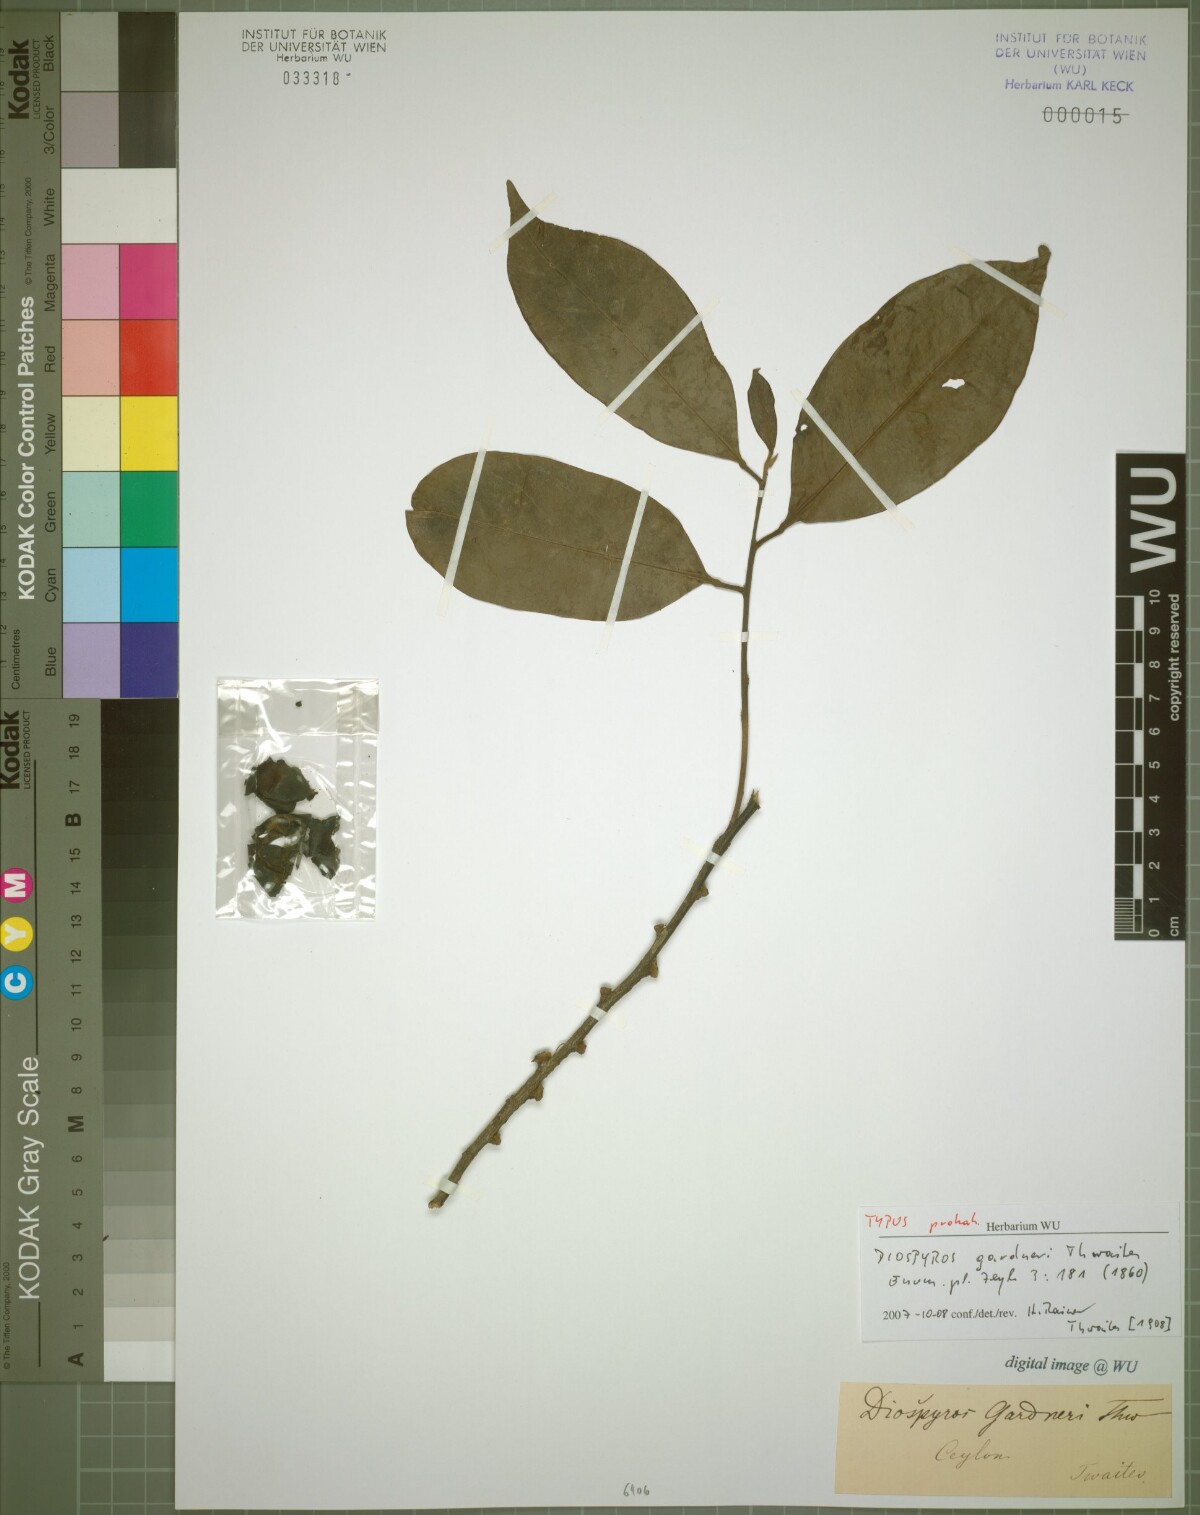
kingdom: Plantae
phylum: Tracheophyta
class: Magnoliopsida
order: Ericales
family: Ebenaceae
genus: Diospyros
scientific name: Diospyros walkeri
